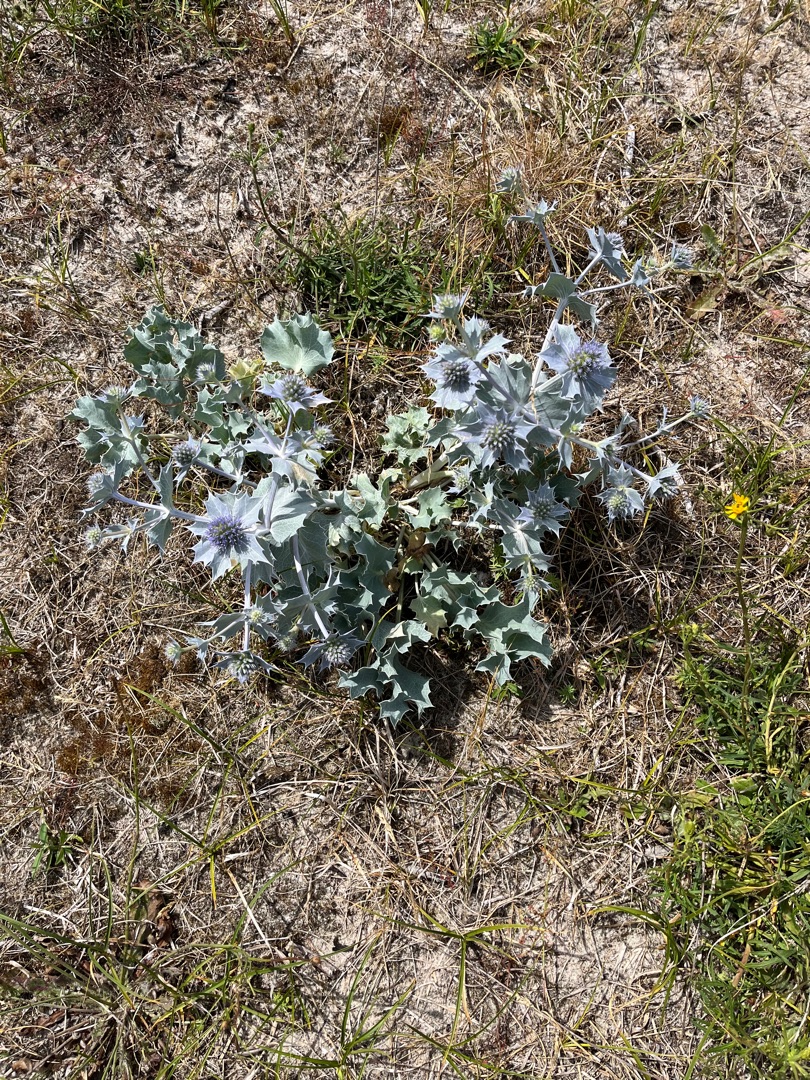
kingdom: Plantae
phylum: Tracheophyta
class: Magnoliopsida
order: Apiales
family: Apiaceae
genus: Eryngium
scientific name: Eryngium maritimum
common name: Strand-mandstro
